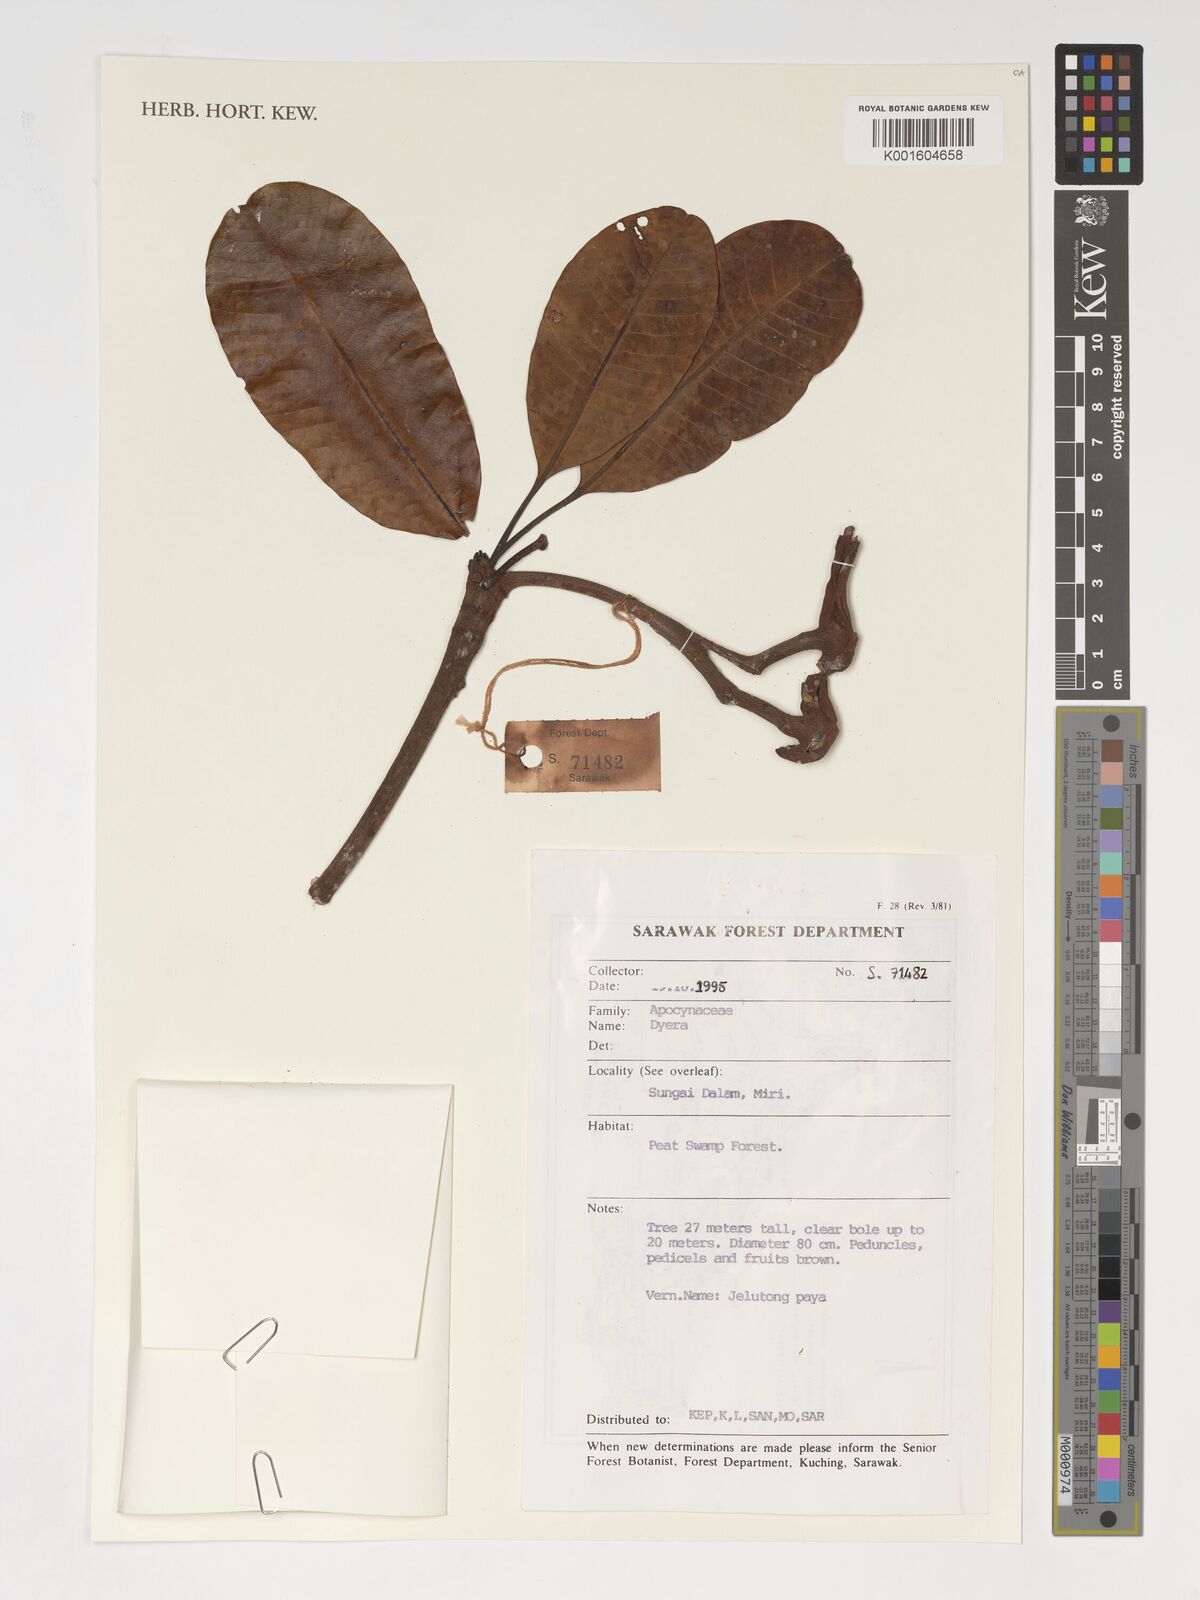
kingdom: Plantae
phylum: Tracheophyta
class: Magnoliopsida
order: Gentianales
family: Apocynaceae
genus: Dyera
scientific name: Dyera
